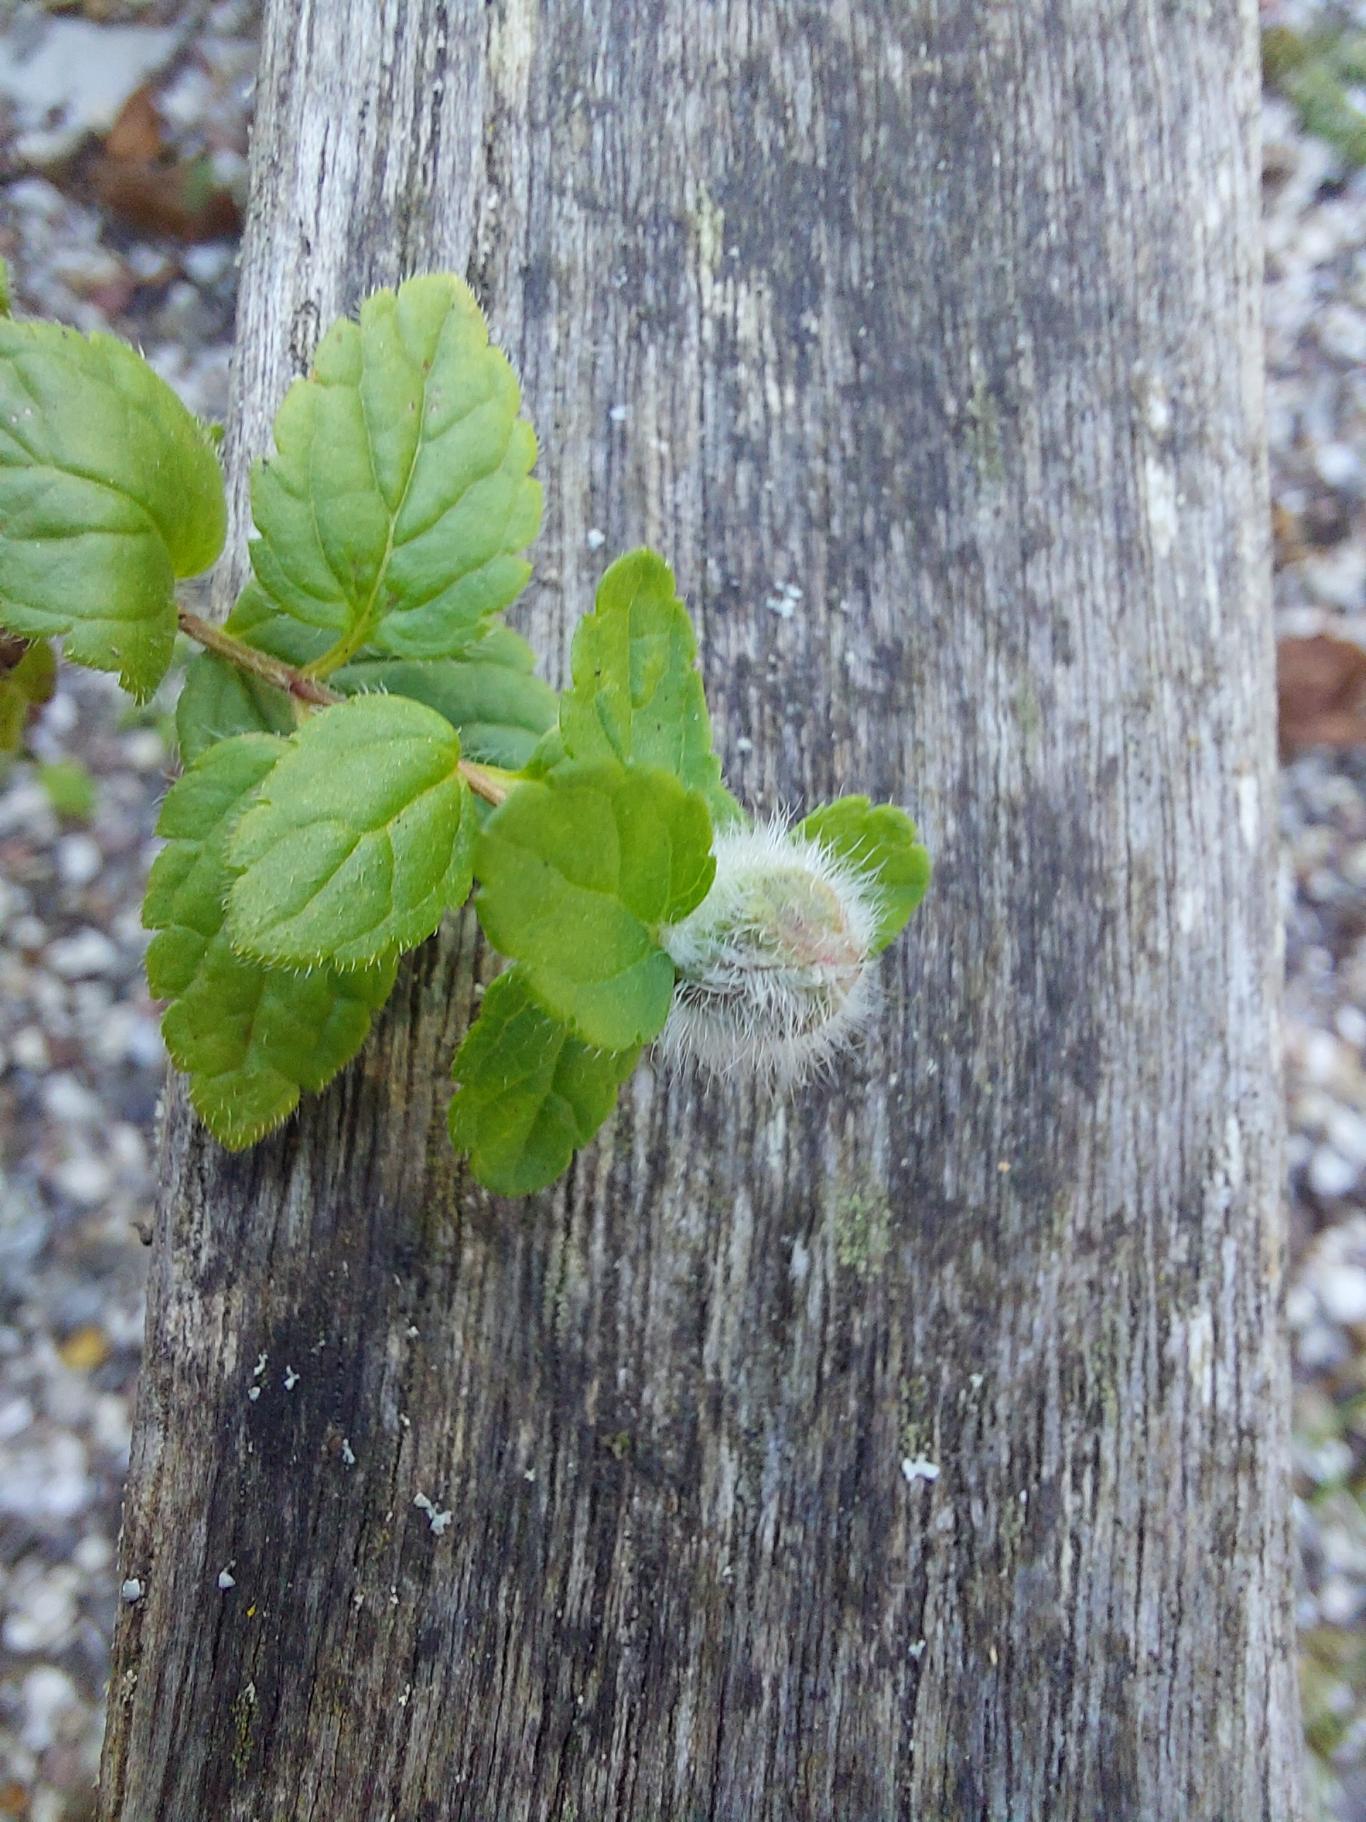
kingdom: Plantae
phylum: Tracheophyta
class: Magnoliopsida
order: Lamiales
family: Plantaginaceae
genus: Veronica
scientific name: Veronica chamaedrys
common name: Tveskægget ærenpris
